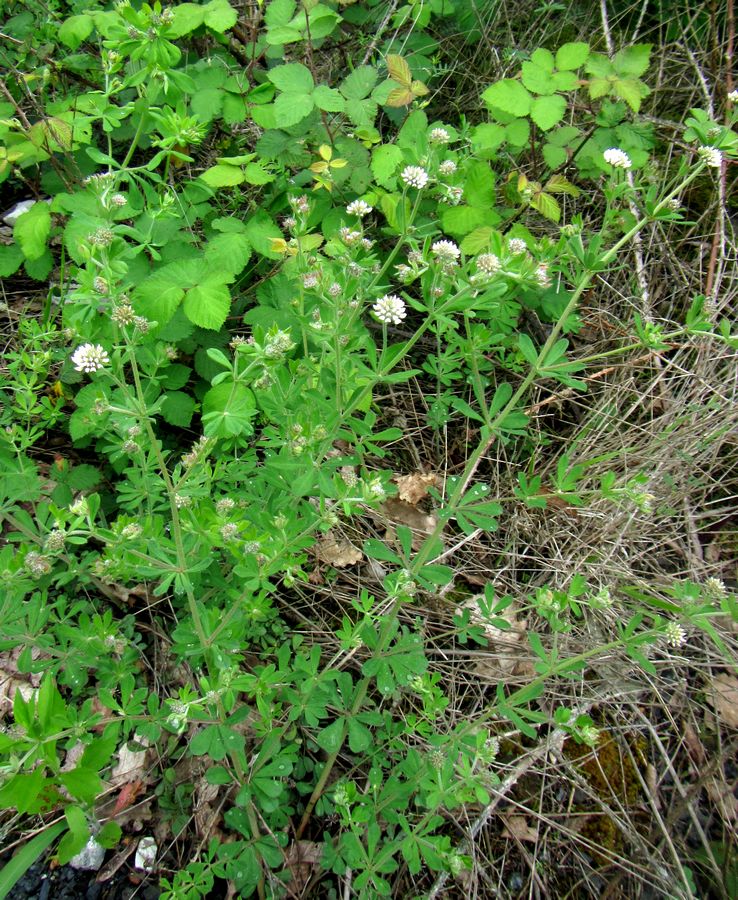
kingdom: Plantae
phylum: Tracheophyta
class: Magnoliopsida
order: Fabales
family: Fabaceae
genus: Lotus
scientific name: Lotus graecus
